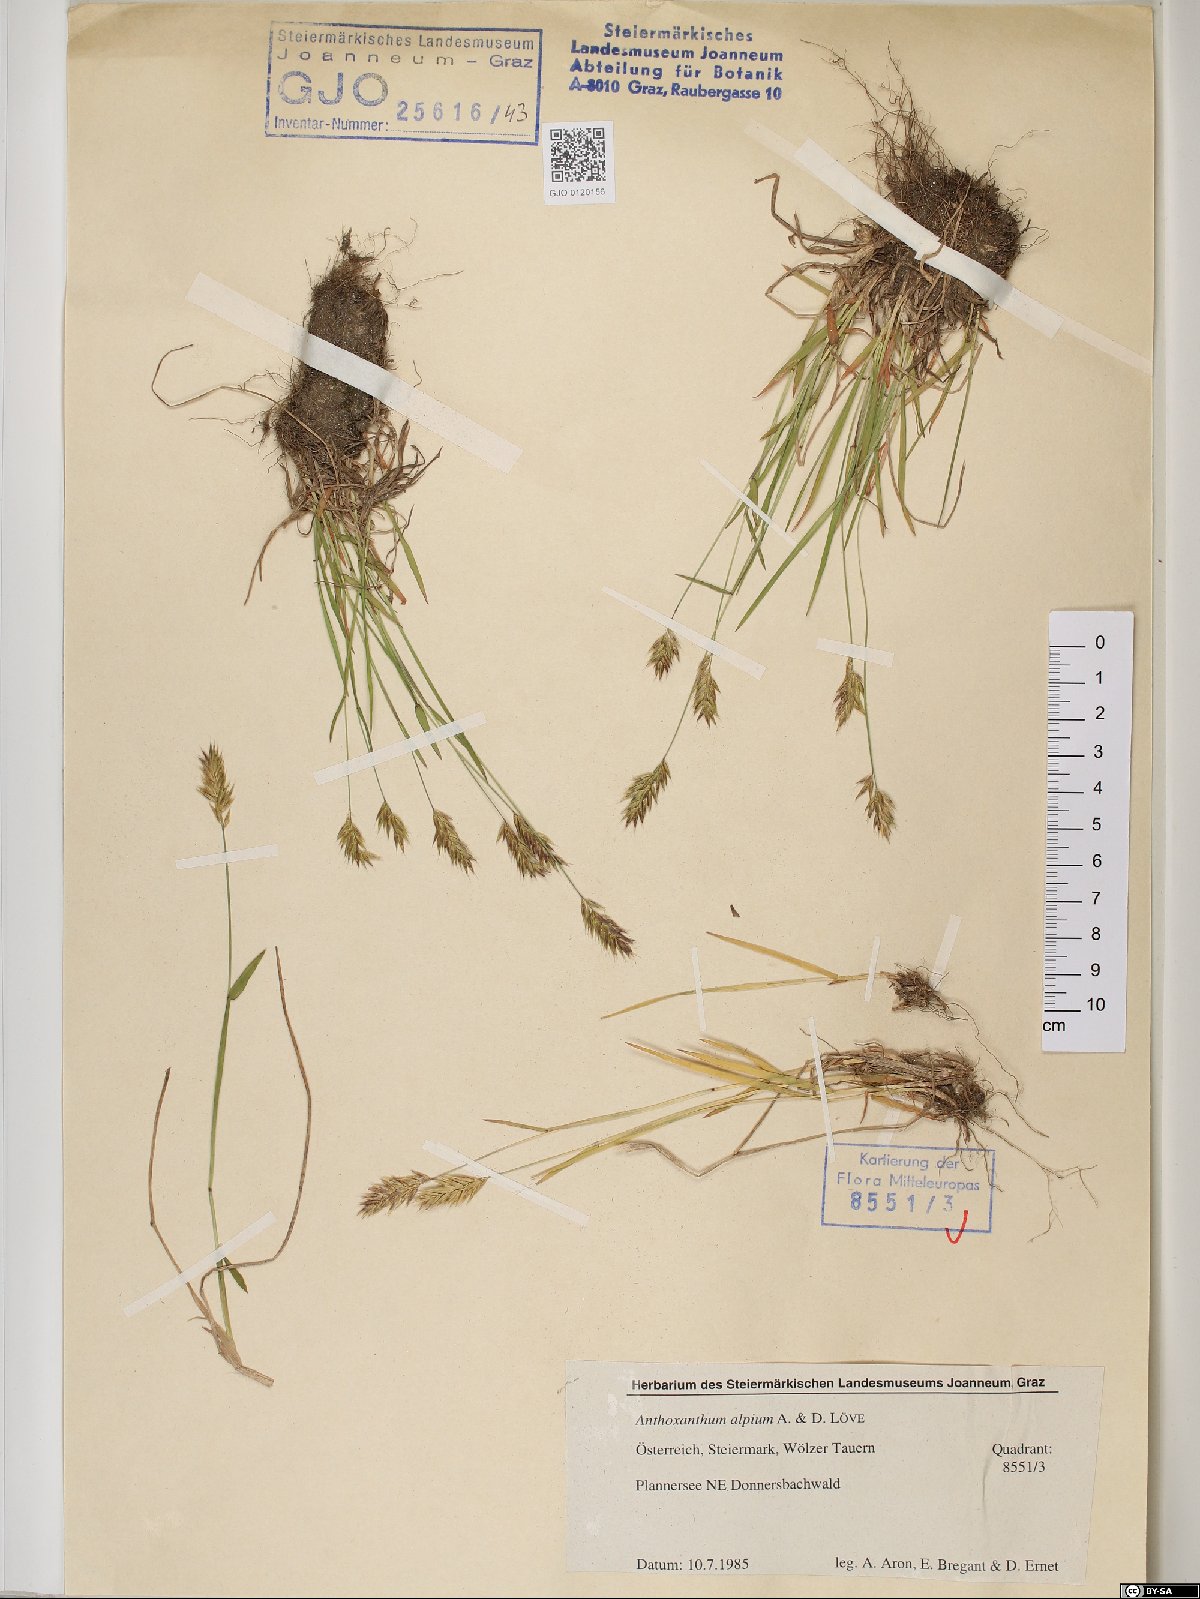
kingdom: Plantae
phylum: Tracheophyta
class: Liliopsida
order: Poales
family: Poaceae
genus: Anthoxanthum
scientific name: Anthoxanthum nipponicum
